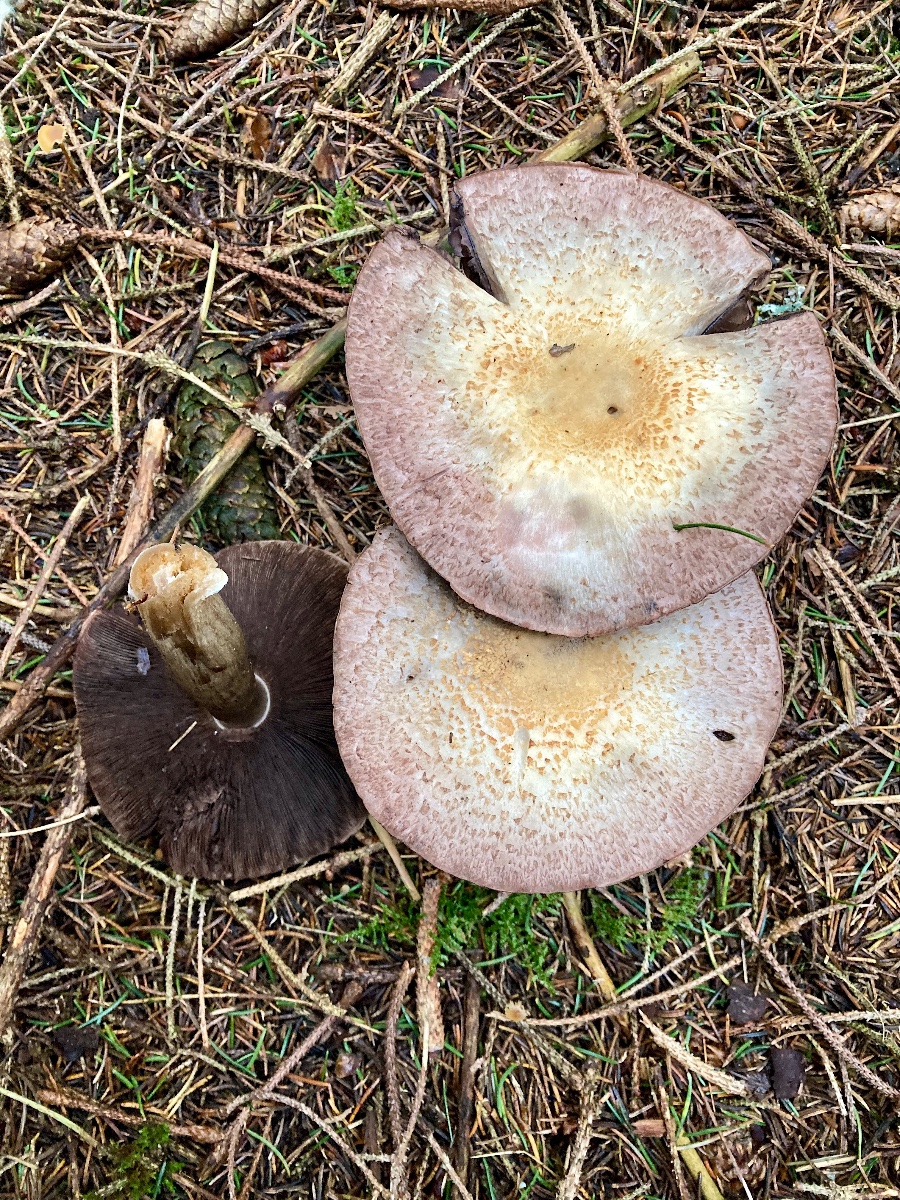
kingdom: Fungi
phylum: Basidiomycota
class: Agaricomycetes
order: Agaricales
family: Agaricaceae
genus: Agaricus
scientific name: Agaricus
